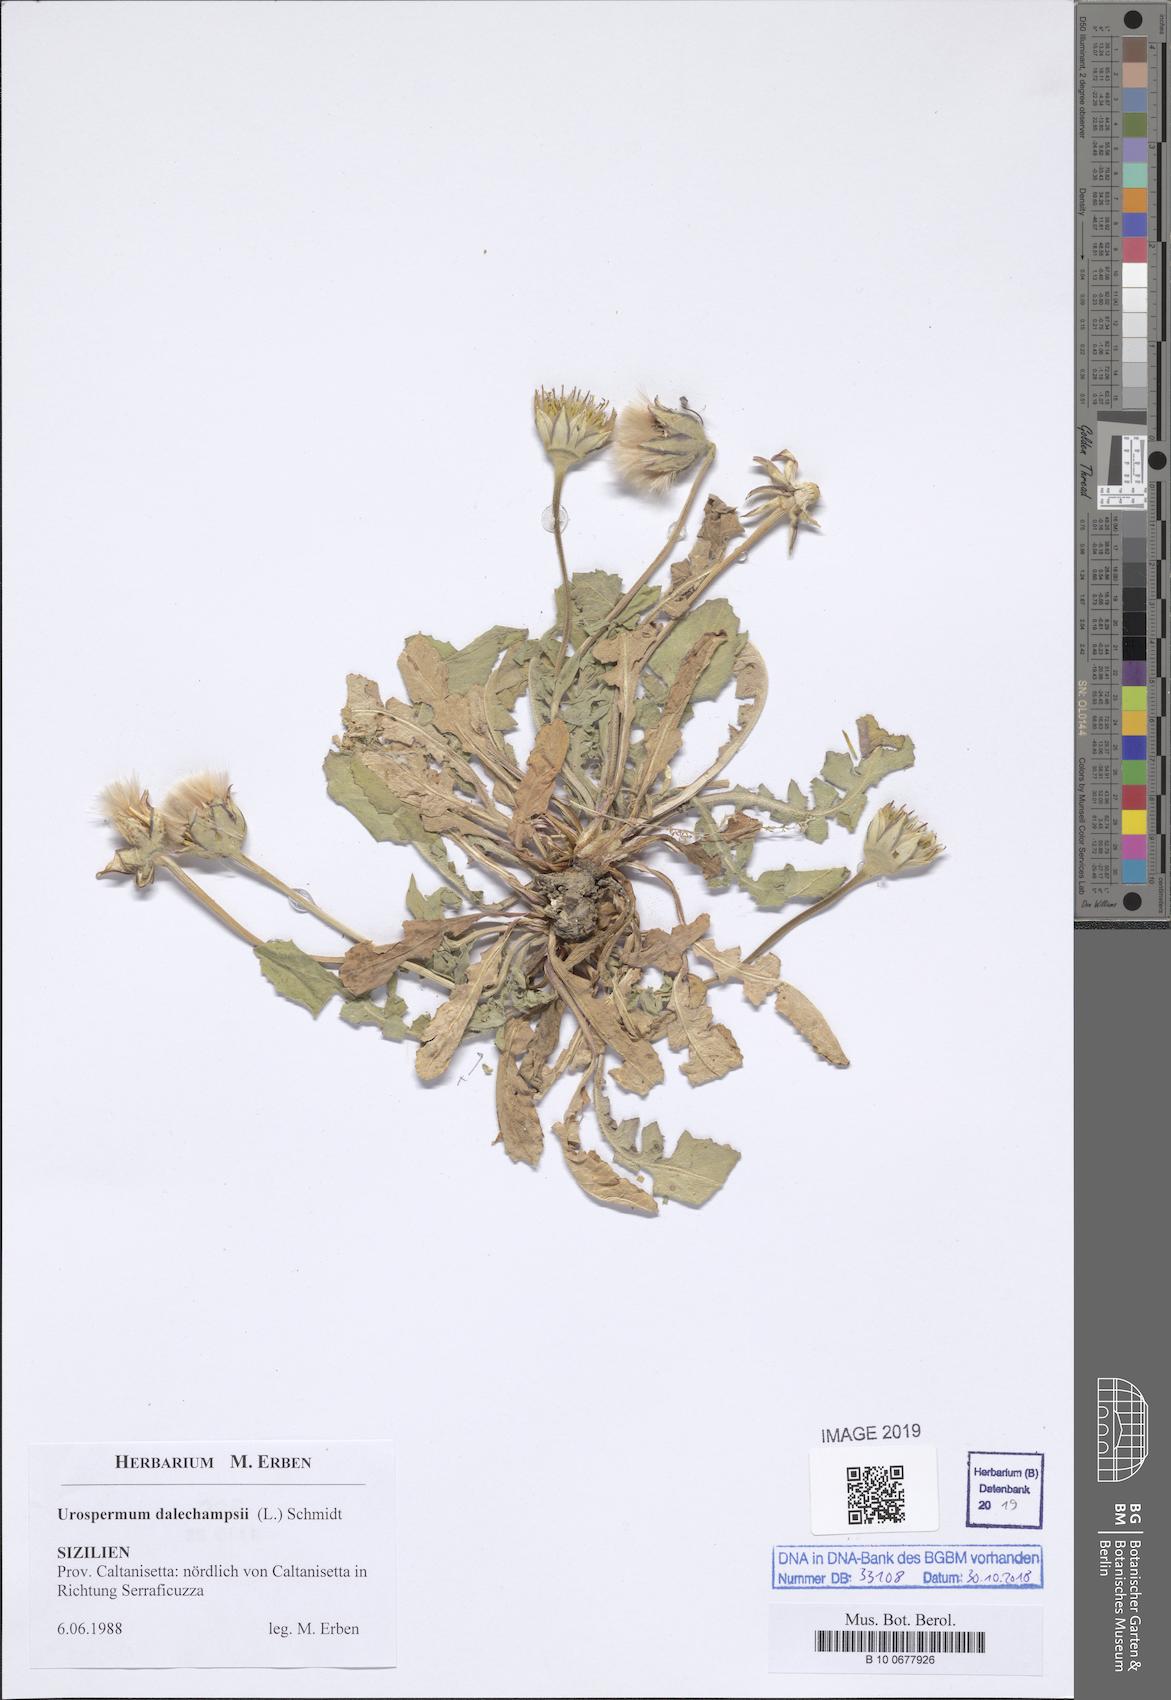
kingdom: Plantae
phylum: Tracheophyta
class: Magnoliopsida
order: Asterales
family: Asteraceae
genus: Urospermum
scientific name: Urospermum dalechampii
